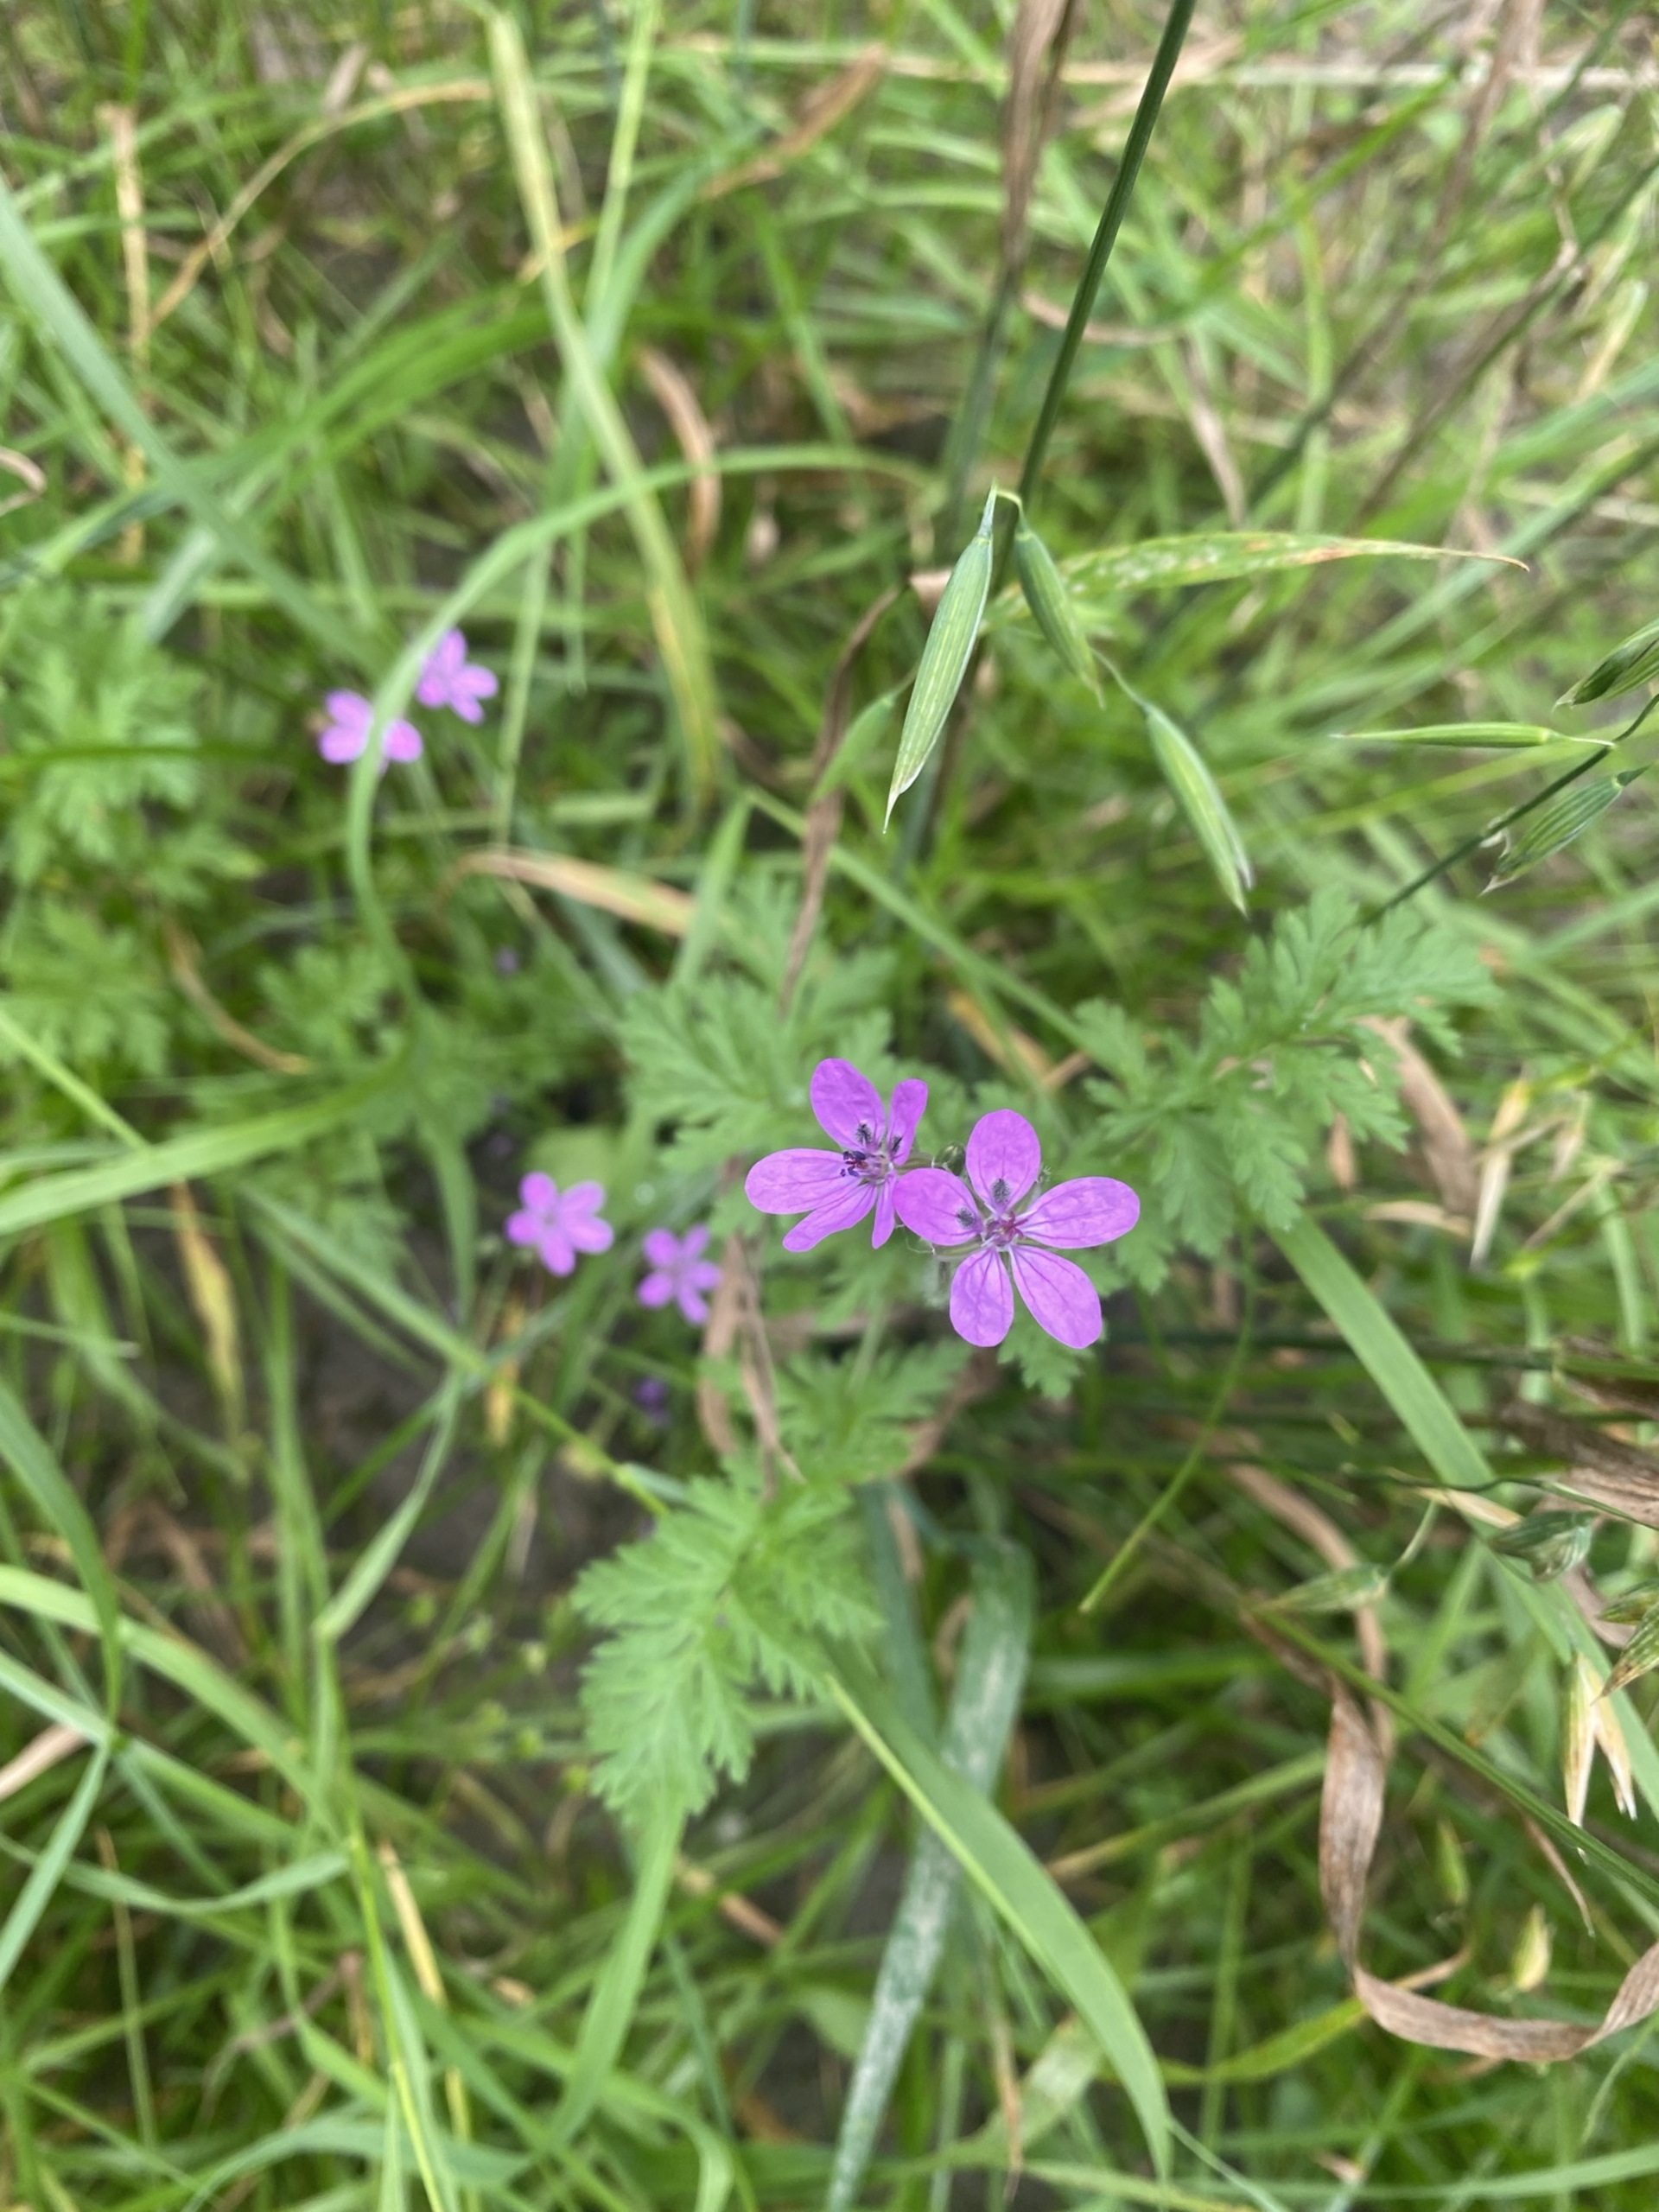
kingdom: Plantae
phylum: Tracheophyta
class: Magnoliopsida
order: Geraniales
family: Geraniaceae
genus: Erodium
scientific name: Erodium cicutarium
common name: Hejrenæb
